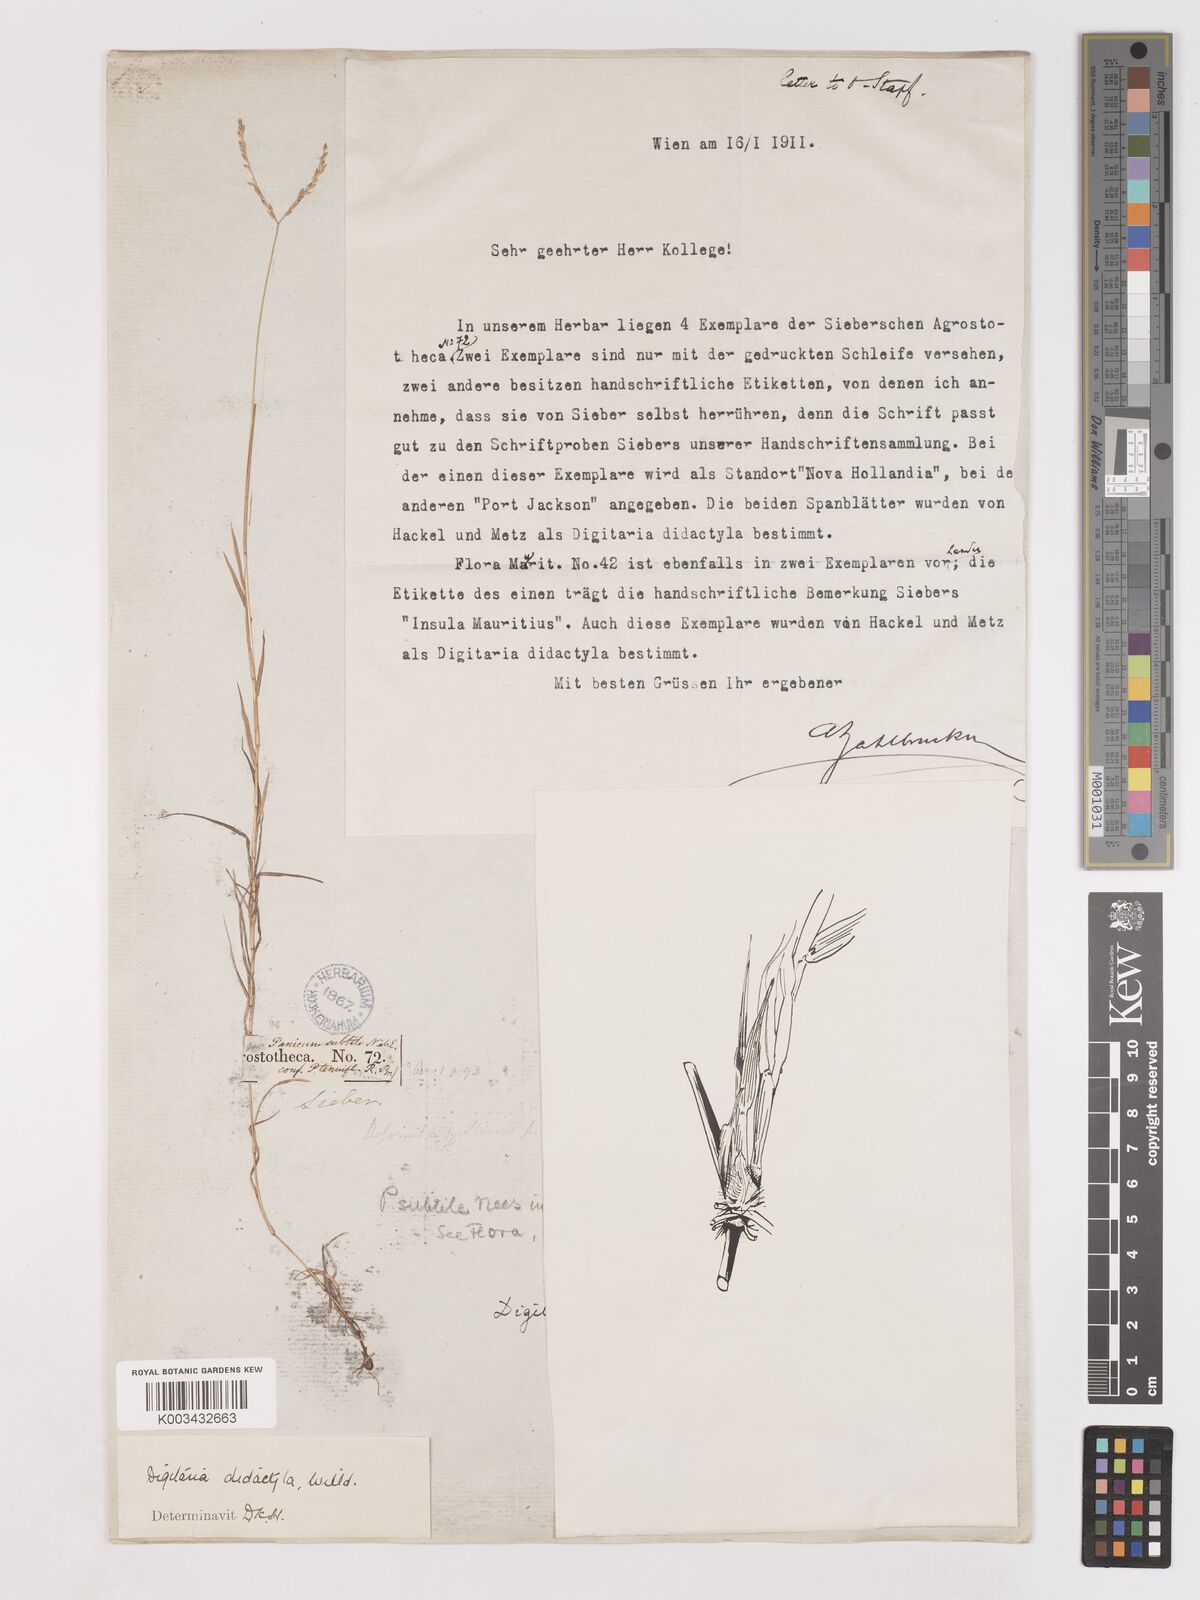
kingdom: Plantae
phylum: Tracheophyta
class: Liliopsida
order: Poales
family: Poaceae
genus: Digitaria
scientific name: Digitaria didactyla
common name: Blue couch
